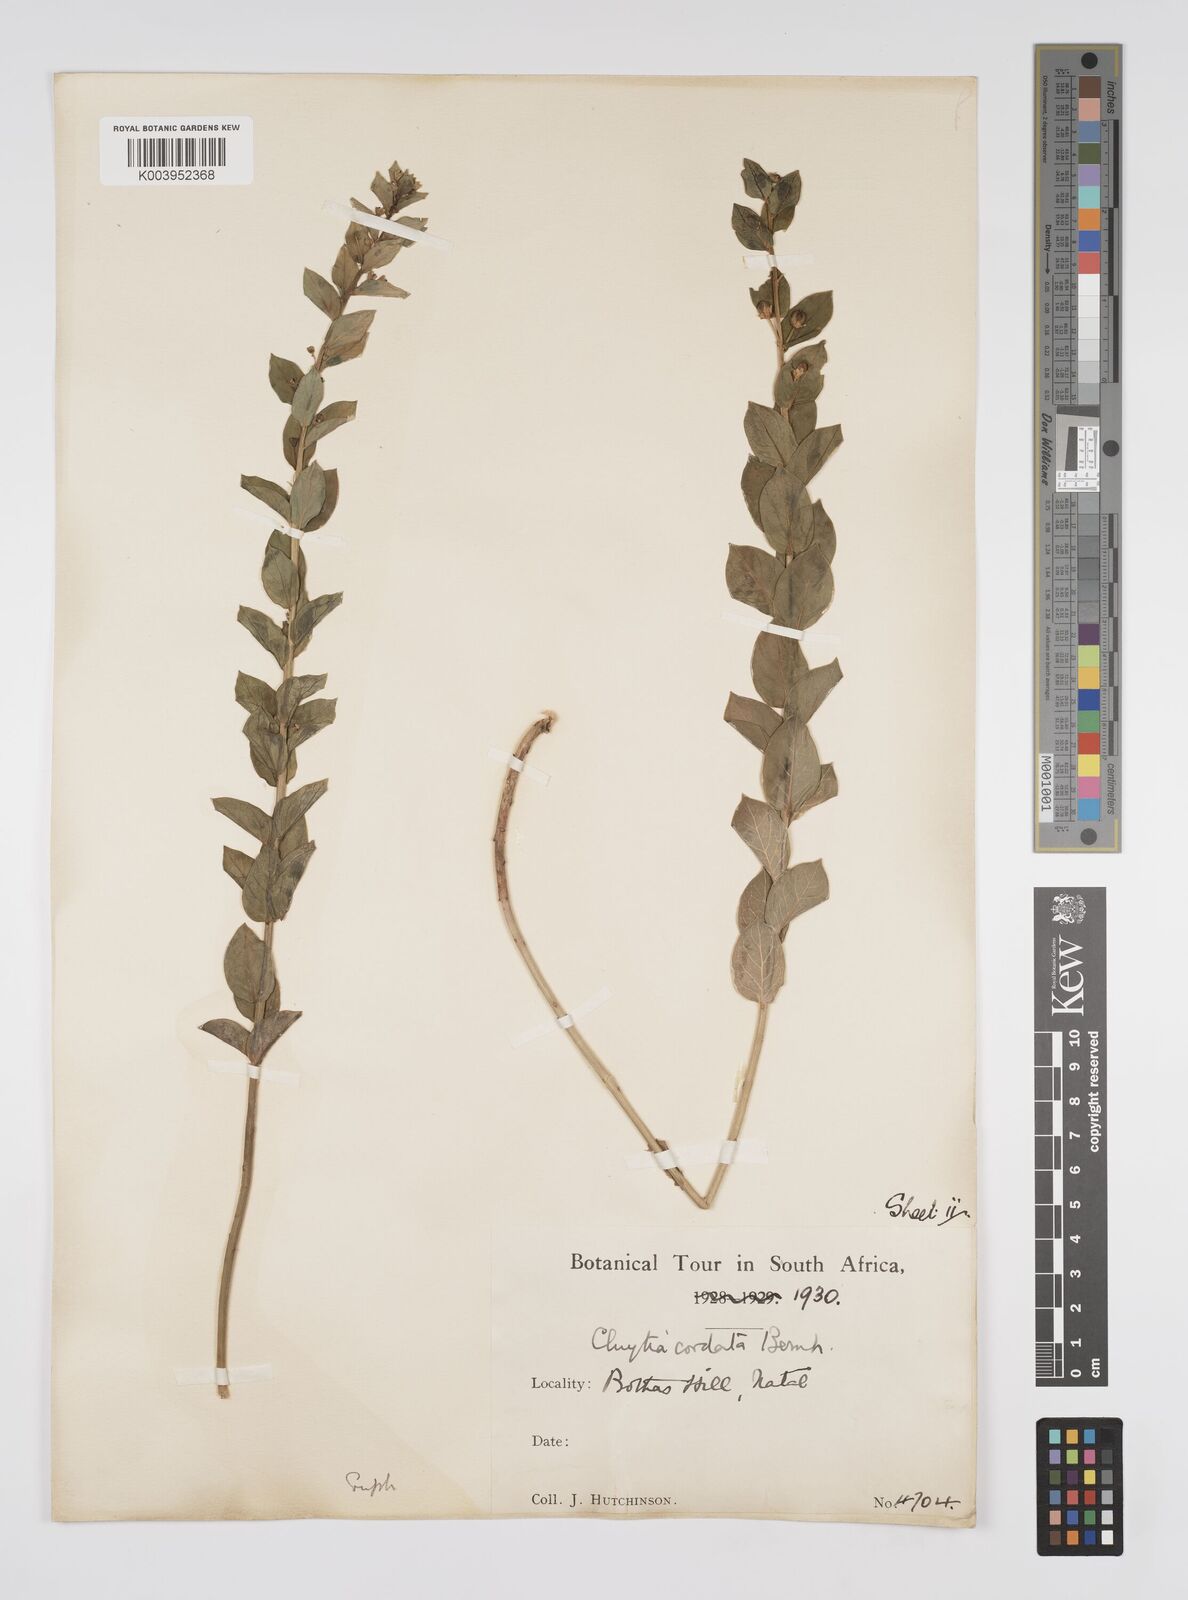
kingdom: Plantae
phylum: Tracheophyta
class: Magnoliopsida
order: Malpighiales
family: Peraceae
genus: Clutia
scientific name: Clutia cordata
